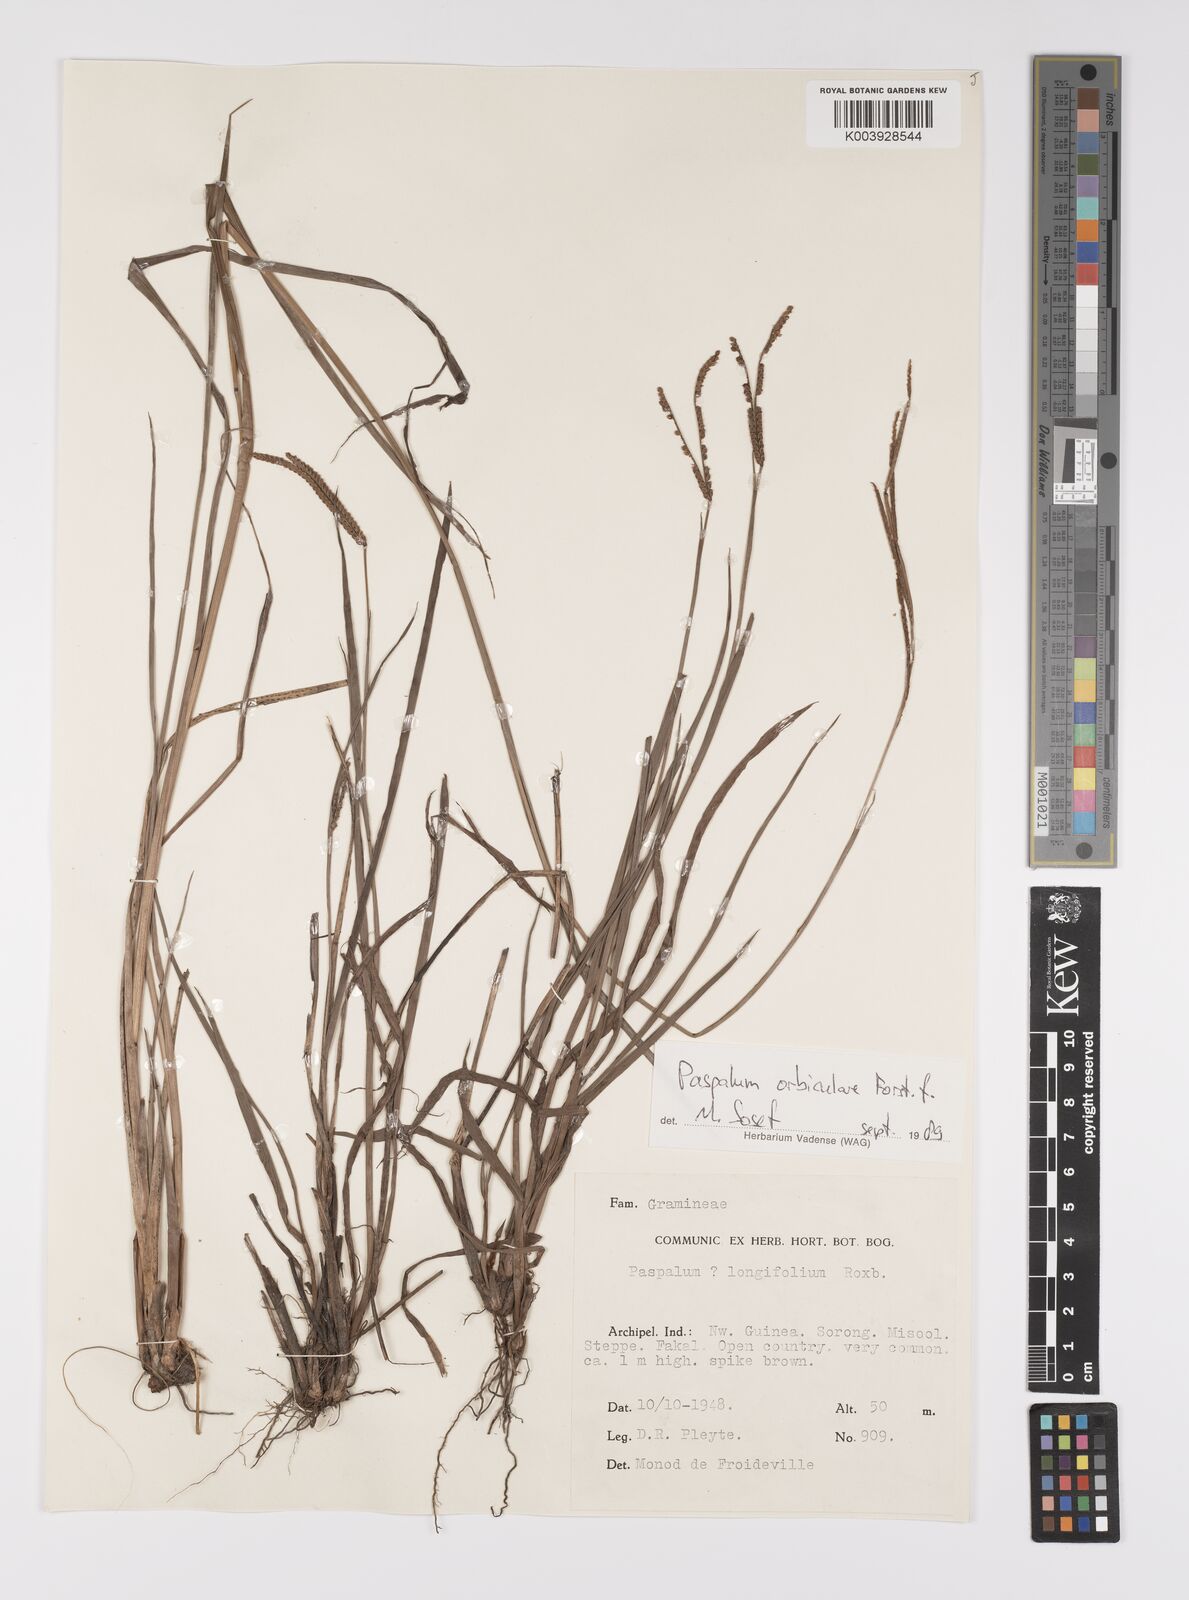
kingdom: Plantae
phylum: Tracheophyta
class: Liliopsida
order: Poales
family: Poaceae
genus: Paspalum
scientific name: Paspalum scrobiculatum
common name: Kodo millet
